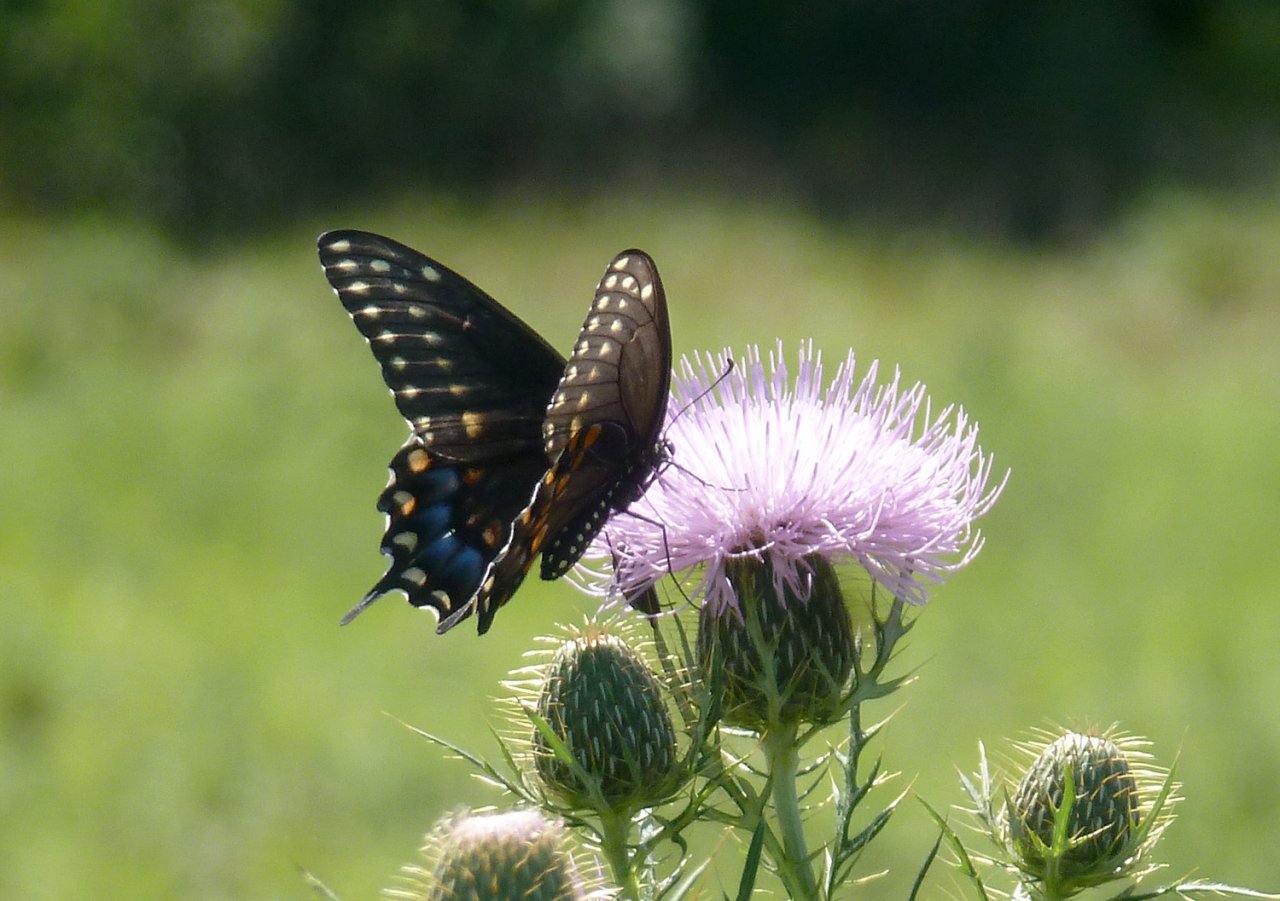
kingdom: Animalia
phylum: Arthropoda
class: Insecta
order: Lepidoptera
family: Papilionidae
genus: Papilio
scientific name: Papilio polyxenes
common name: Black Swallowtail
